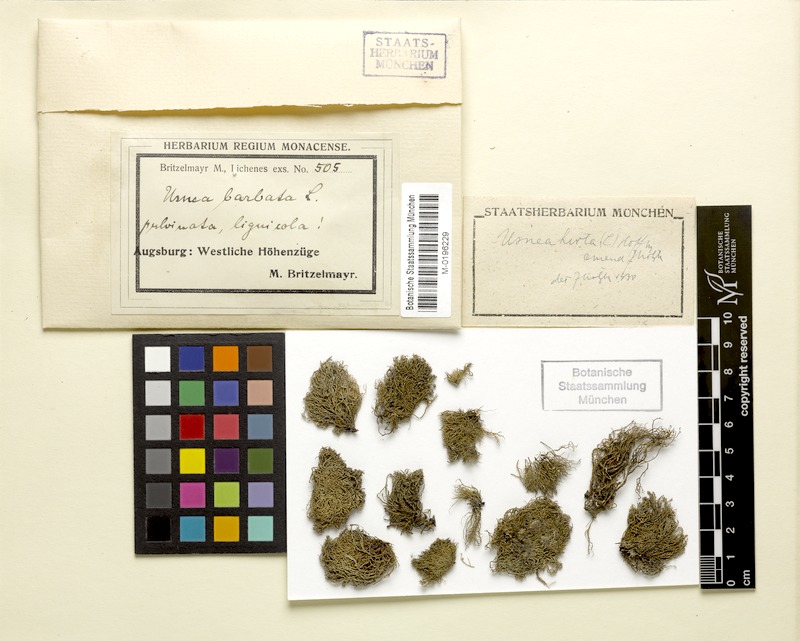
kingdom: Fungi
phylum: Ascomycota
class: Lecanoromycetes
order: Lecanorales
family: Parmeliaceae
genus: Usnea
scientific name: Usnea hirta
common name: Bristly beard lichen
